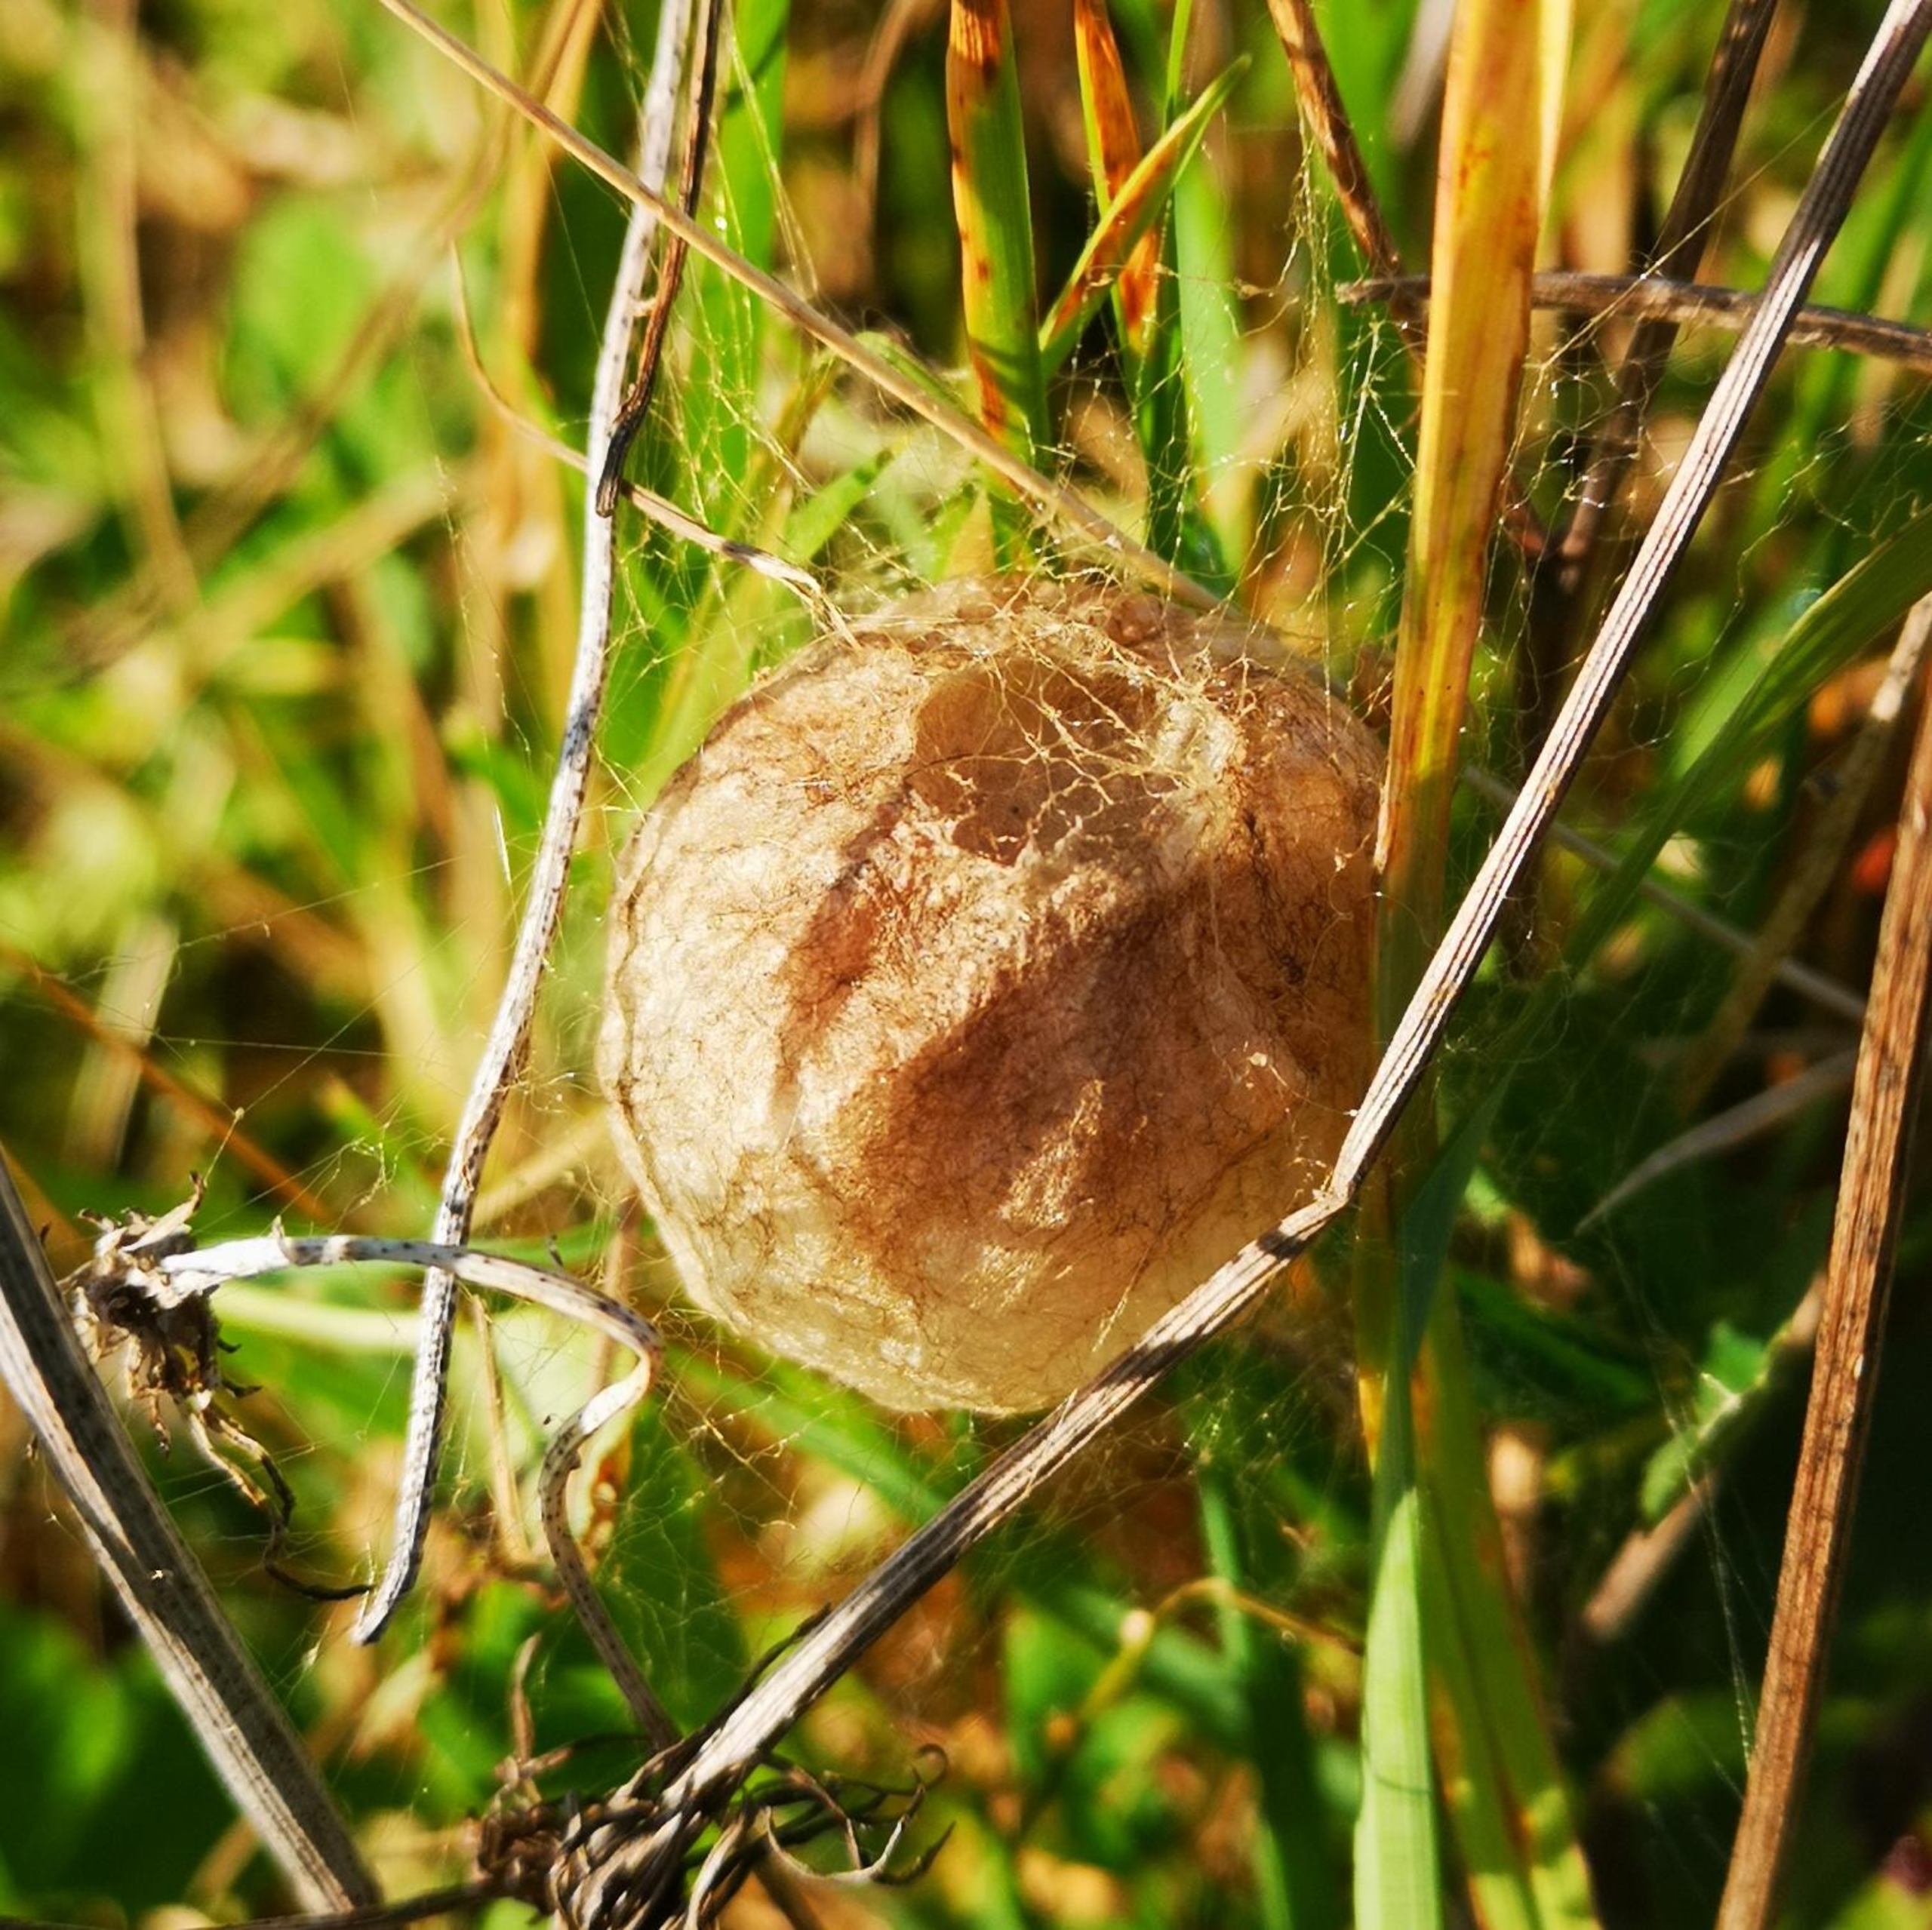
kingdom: Animalia
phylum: Arthropoda
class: Arachnida
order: Araneae
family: Araneidae
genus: Argiope
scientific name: Argiope bruennichi
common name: Hvepseedderkop
